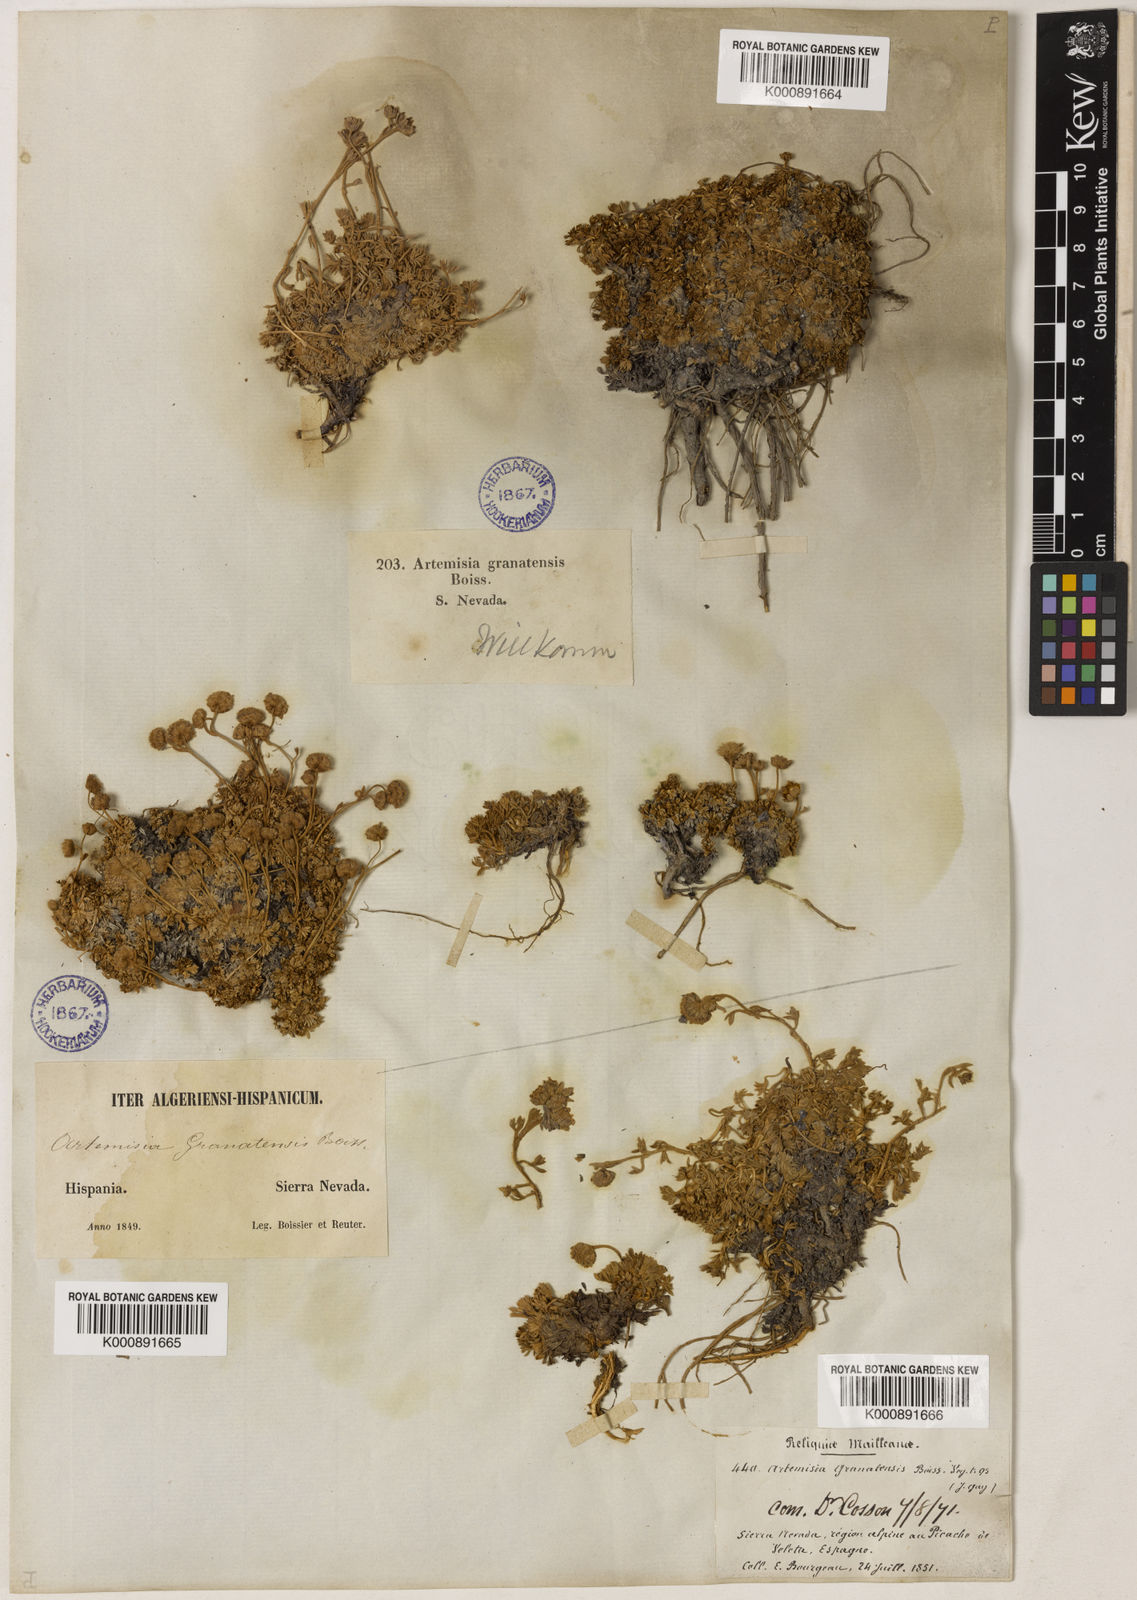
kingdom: Plantae
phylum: Tracheophyta
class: Magnoliopsida
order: Asterales
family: Asteraceae
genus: Artemisia
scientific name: Artemisia granatensis
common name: Royal chamomile
